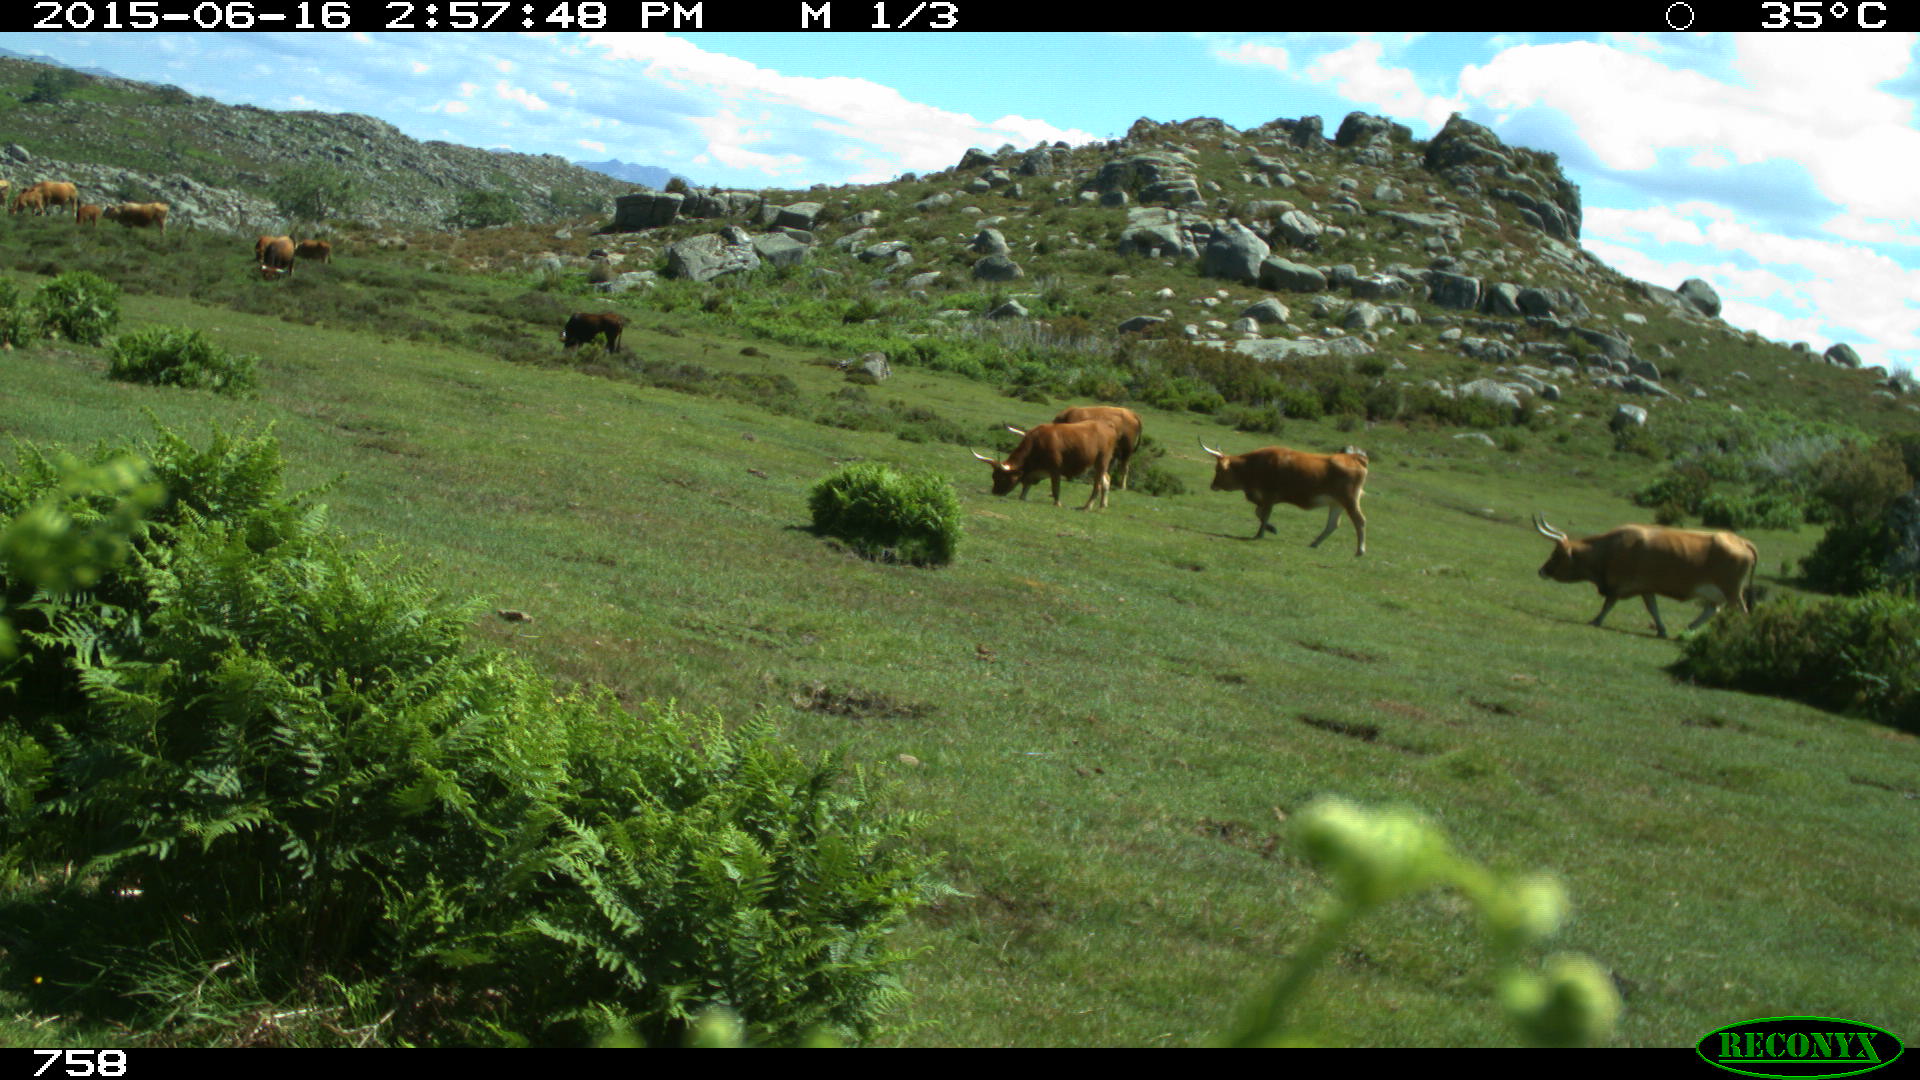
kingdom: Animalia
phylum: Chordata
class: Mammalia
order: Artiodactyla
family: Bovidae
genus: Bos
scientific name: Bos taurus
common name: Domesticated cattle
